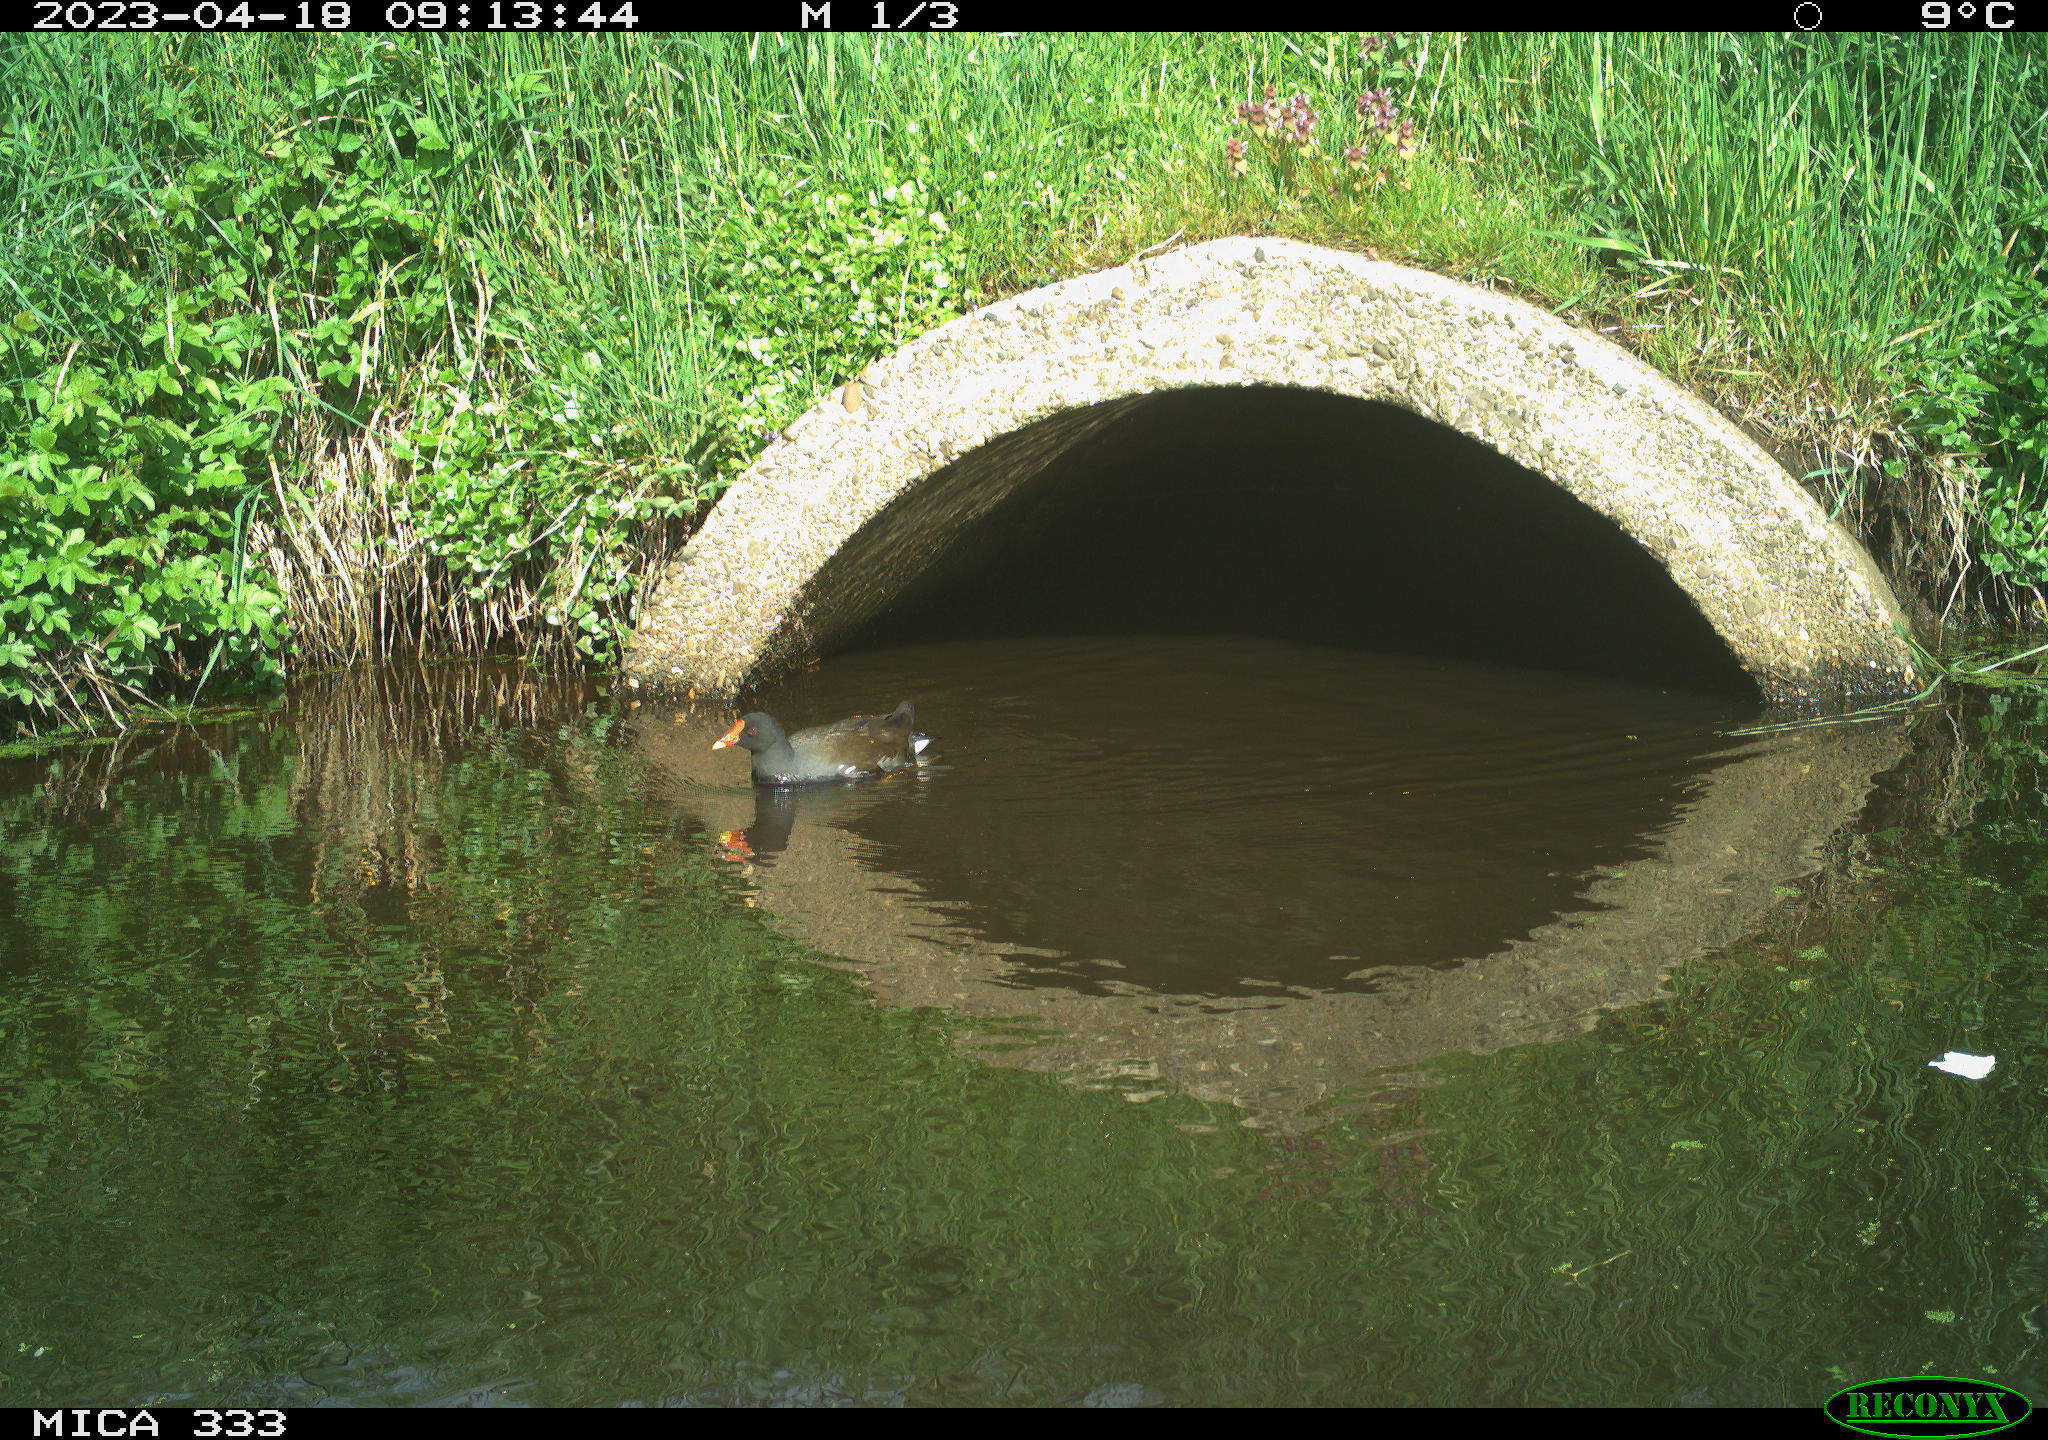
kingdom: Animalia
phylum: Chordata
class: Aves
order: Gruiformes
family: Rallidae
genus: Gallinula
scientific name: Gallinula chloropus
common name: Common moorhen
